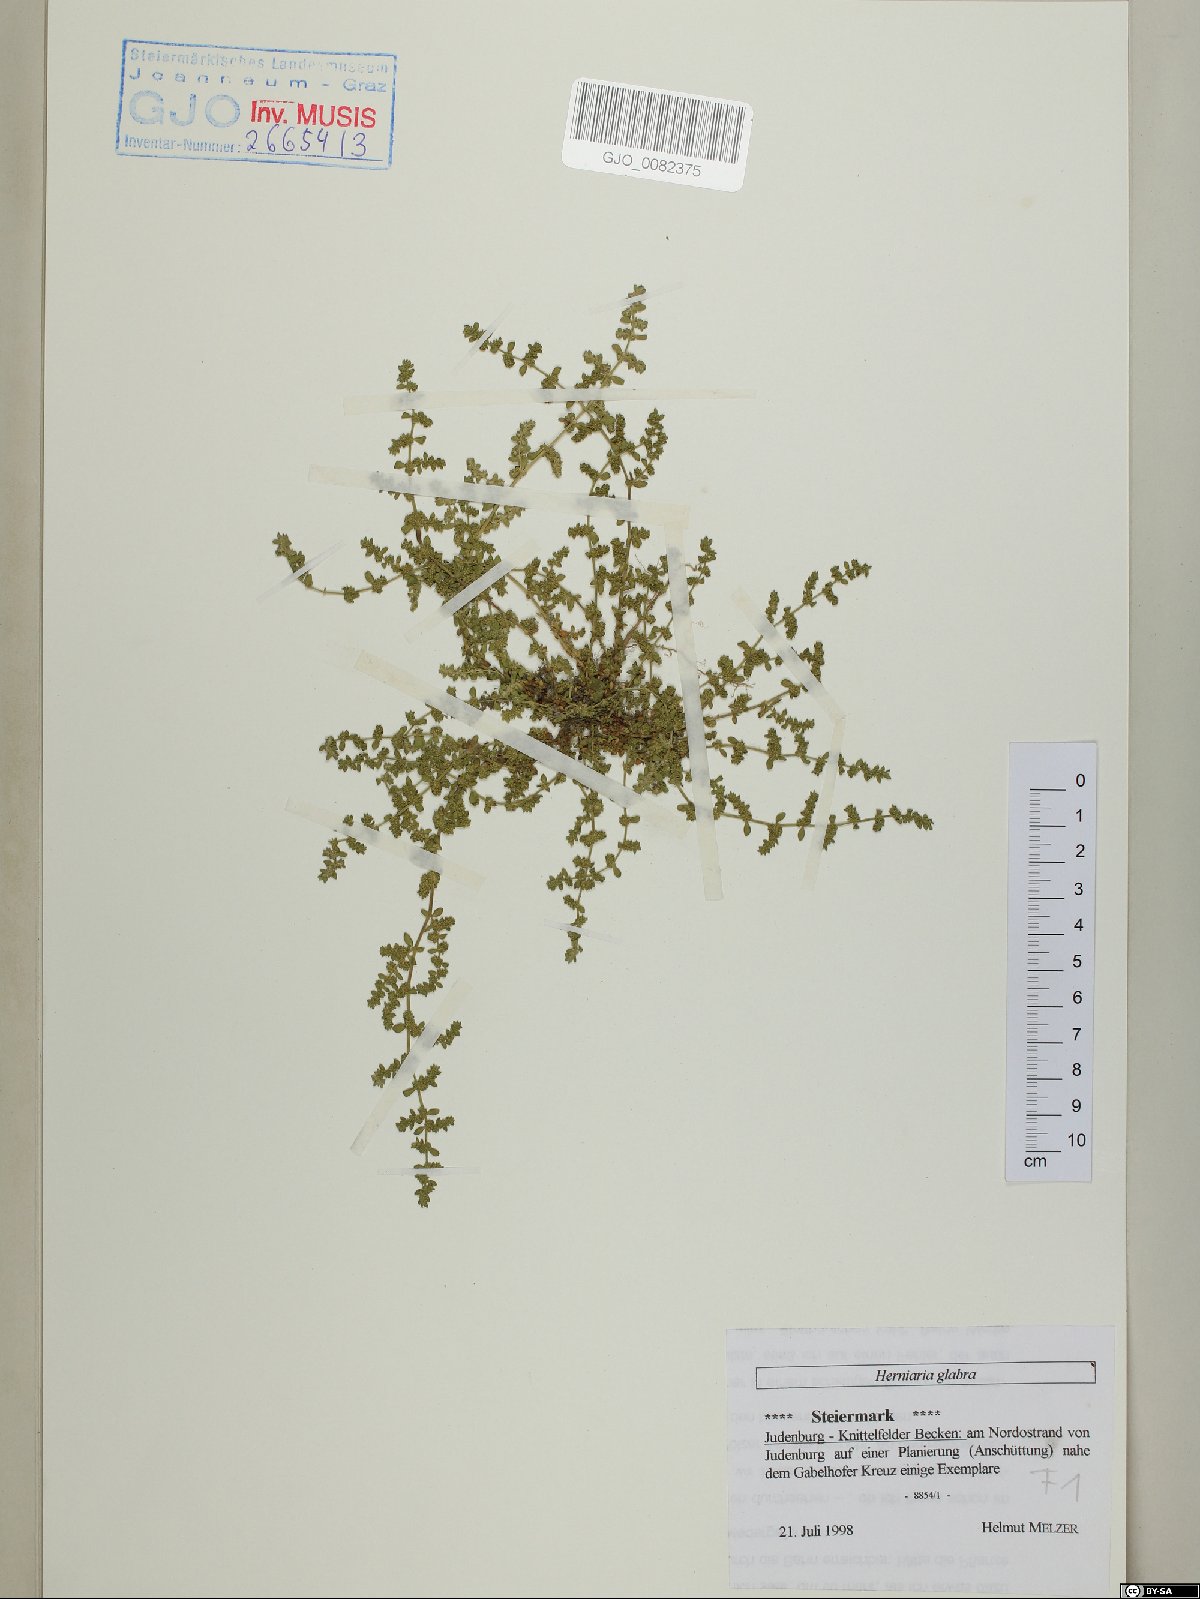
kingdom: Plantae
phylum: Tracheophyta
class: Magnoliopsida
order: Caryophyllales
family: Caryophyllaceae
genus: Herniaria
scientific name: Herniaria glabra
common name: Smooth rupturewort
